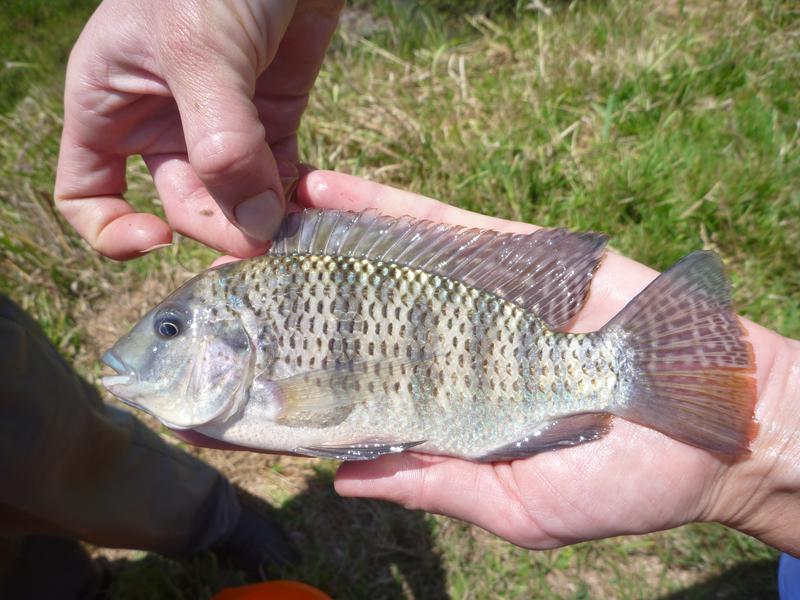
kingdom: Animalia
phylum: Chordata
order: Perciformes
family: Cichlidae
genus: Coptodon
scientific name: Coptodon rendalli
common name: Redbreast tilapia
